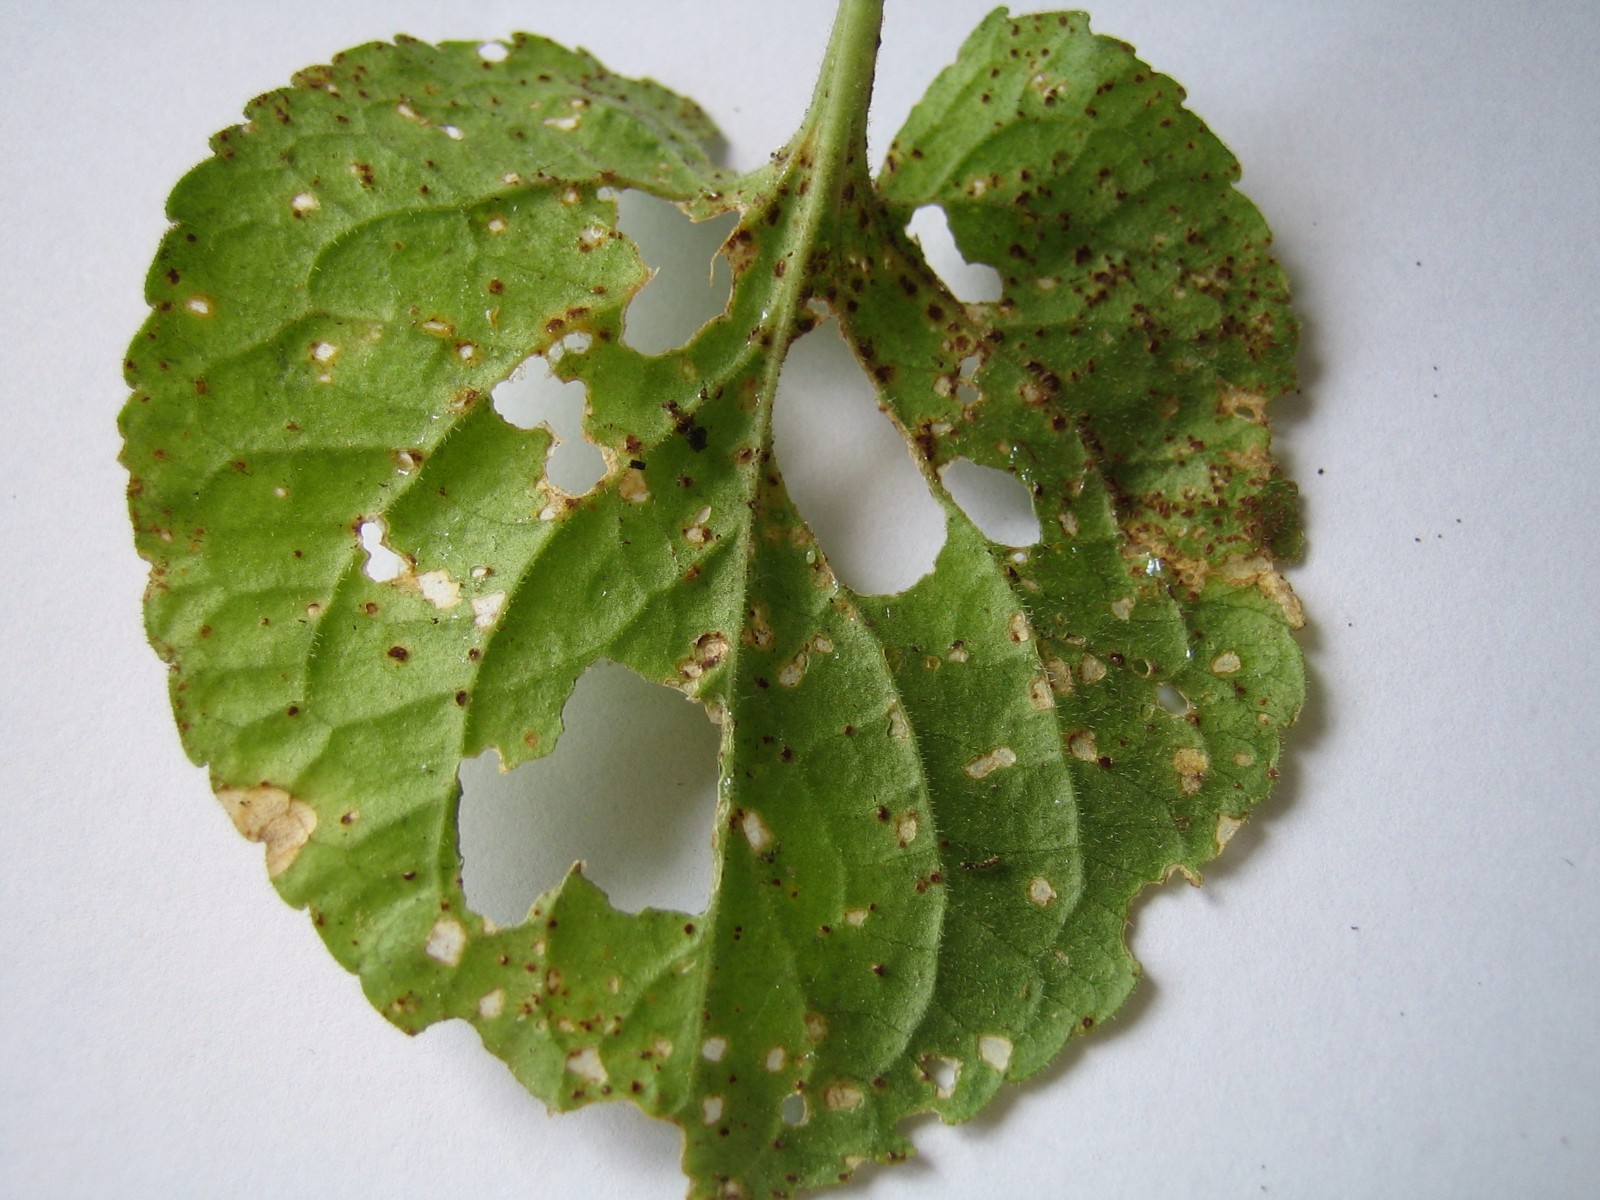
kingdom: Fungi
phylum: Basidiomycota
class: Pucciniomycetes
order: Pucciniales
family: Pucciniaceae
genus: Puccinia
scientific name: Puccinia violae
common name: viol-tvecellerust
